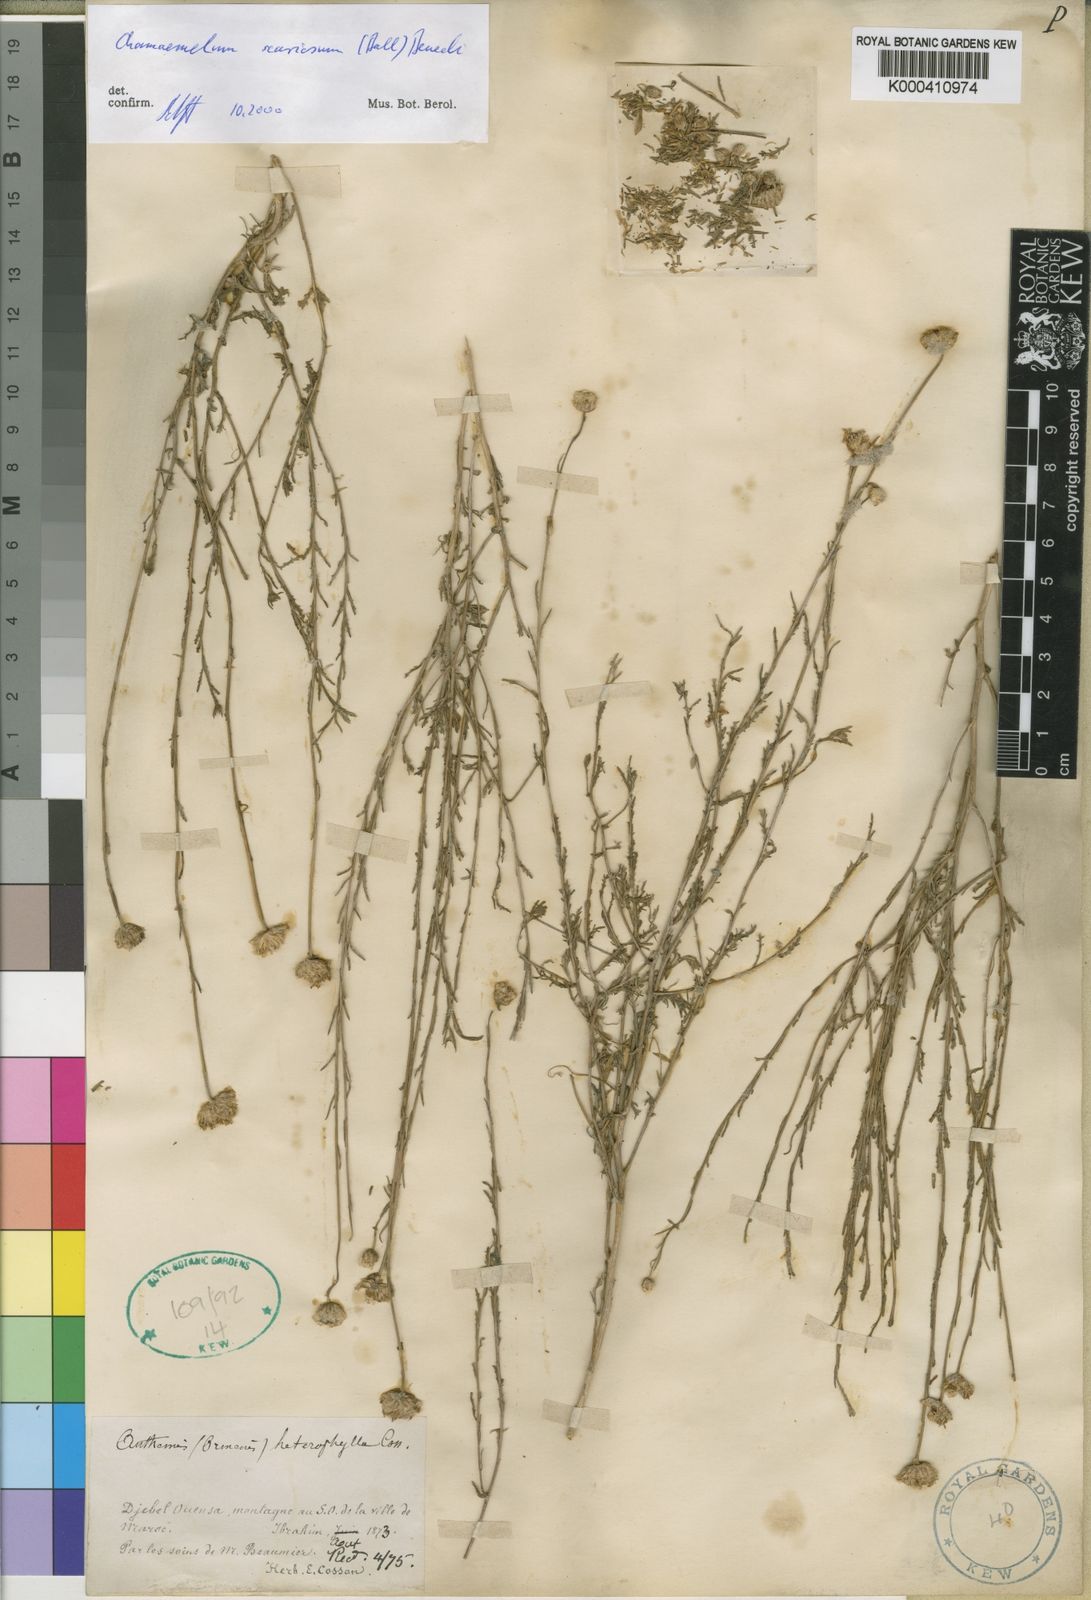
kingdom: Plantae
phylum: Tracheophyta
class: Magnoliopsida
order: Asterales
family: Asteraceae
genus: Chamaemelum
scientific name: Chamaemelum
